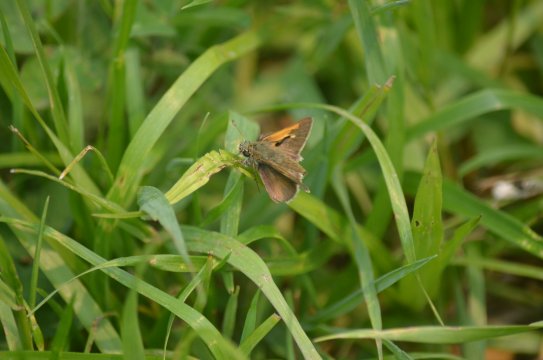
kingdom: Animalia
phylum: Arthropoda
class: Insecta
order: Lepidoptera
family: Hesperiidae
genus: Polites
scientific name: Polites themistocles
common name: Tawny-edged Skipper
